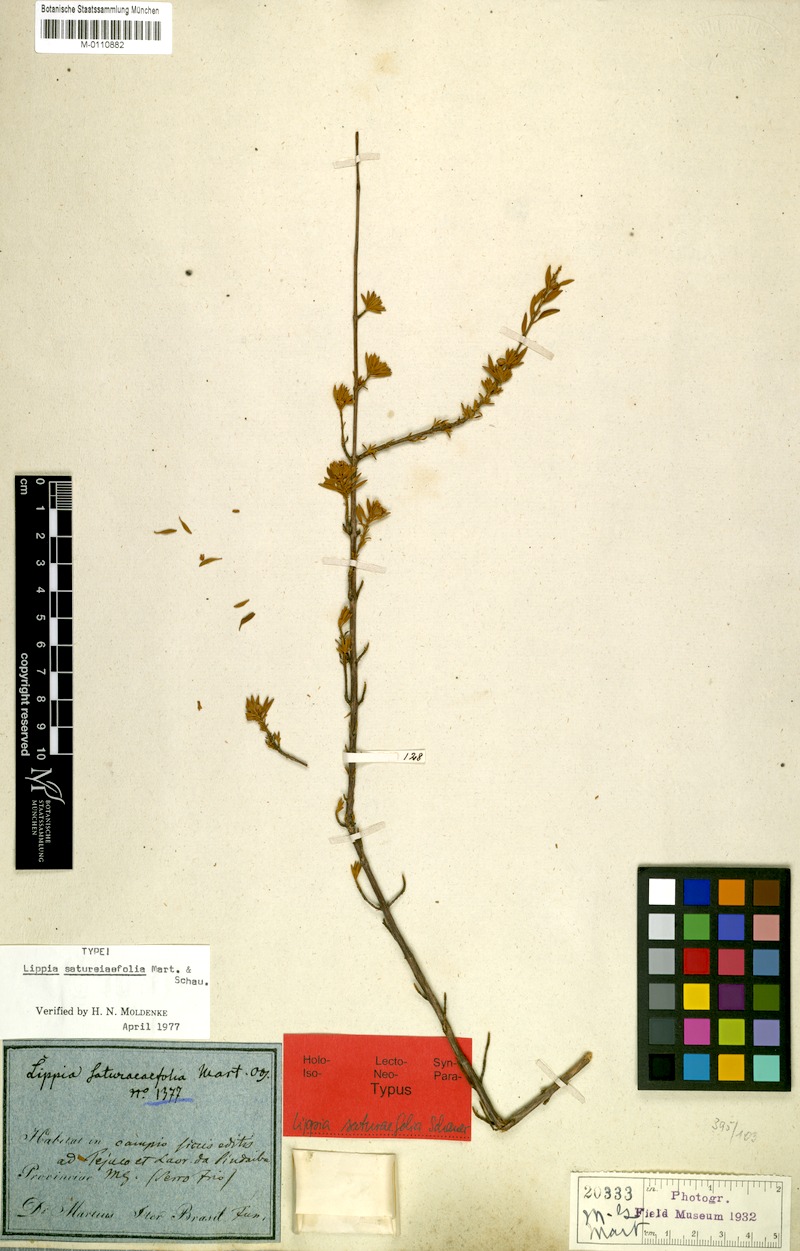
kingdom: Plantae
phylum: Tracheophyta
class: Magnoliopsida
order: Lamiales
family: Verbenaceae
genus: Lippia
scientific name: Lippia saturejifolia
